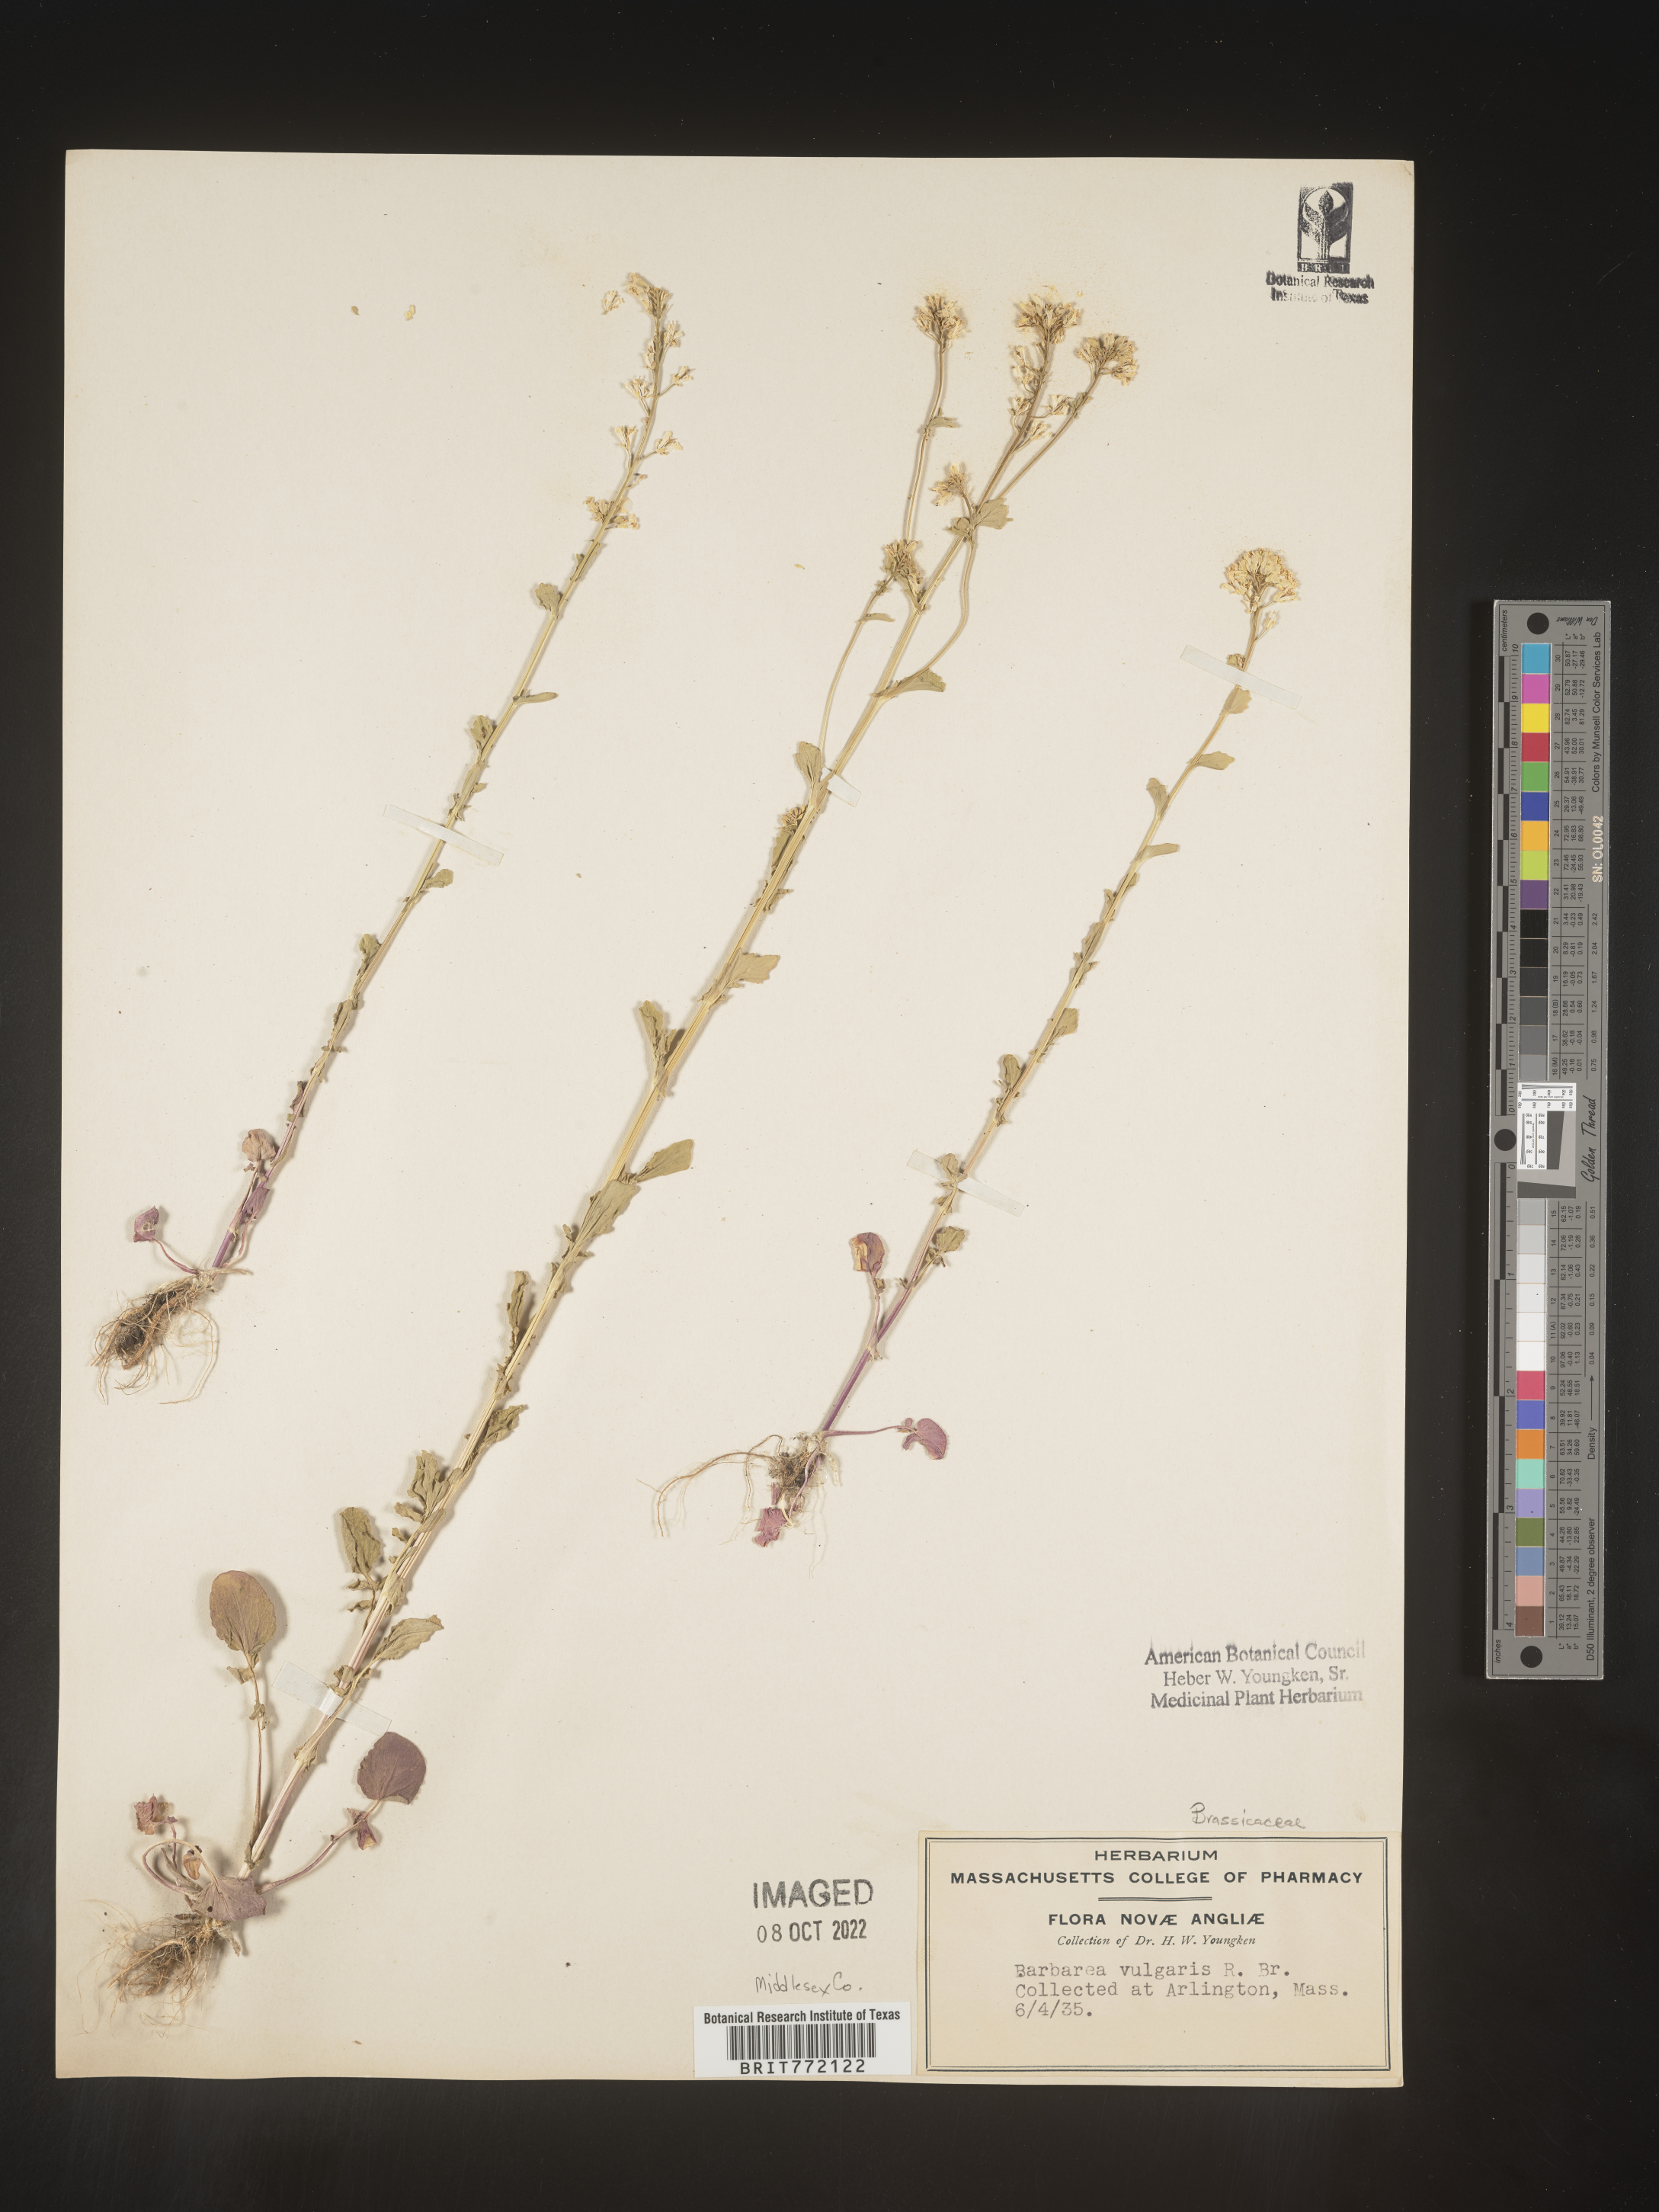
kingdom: Plantae
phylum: Tracheophyta
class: Magnoliopsida
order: Brassicales
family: Brassicaceae
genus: Barbarea
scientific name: Barbarea vulgaris
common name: Cressy-greens
